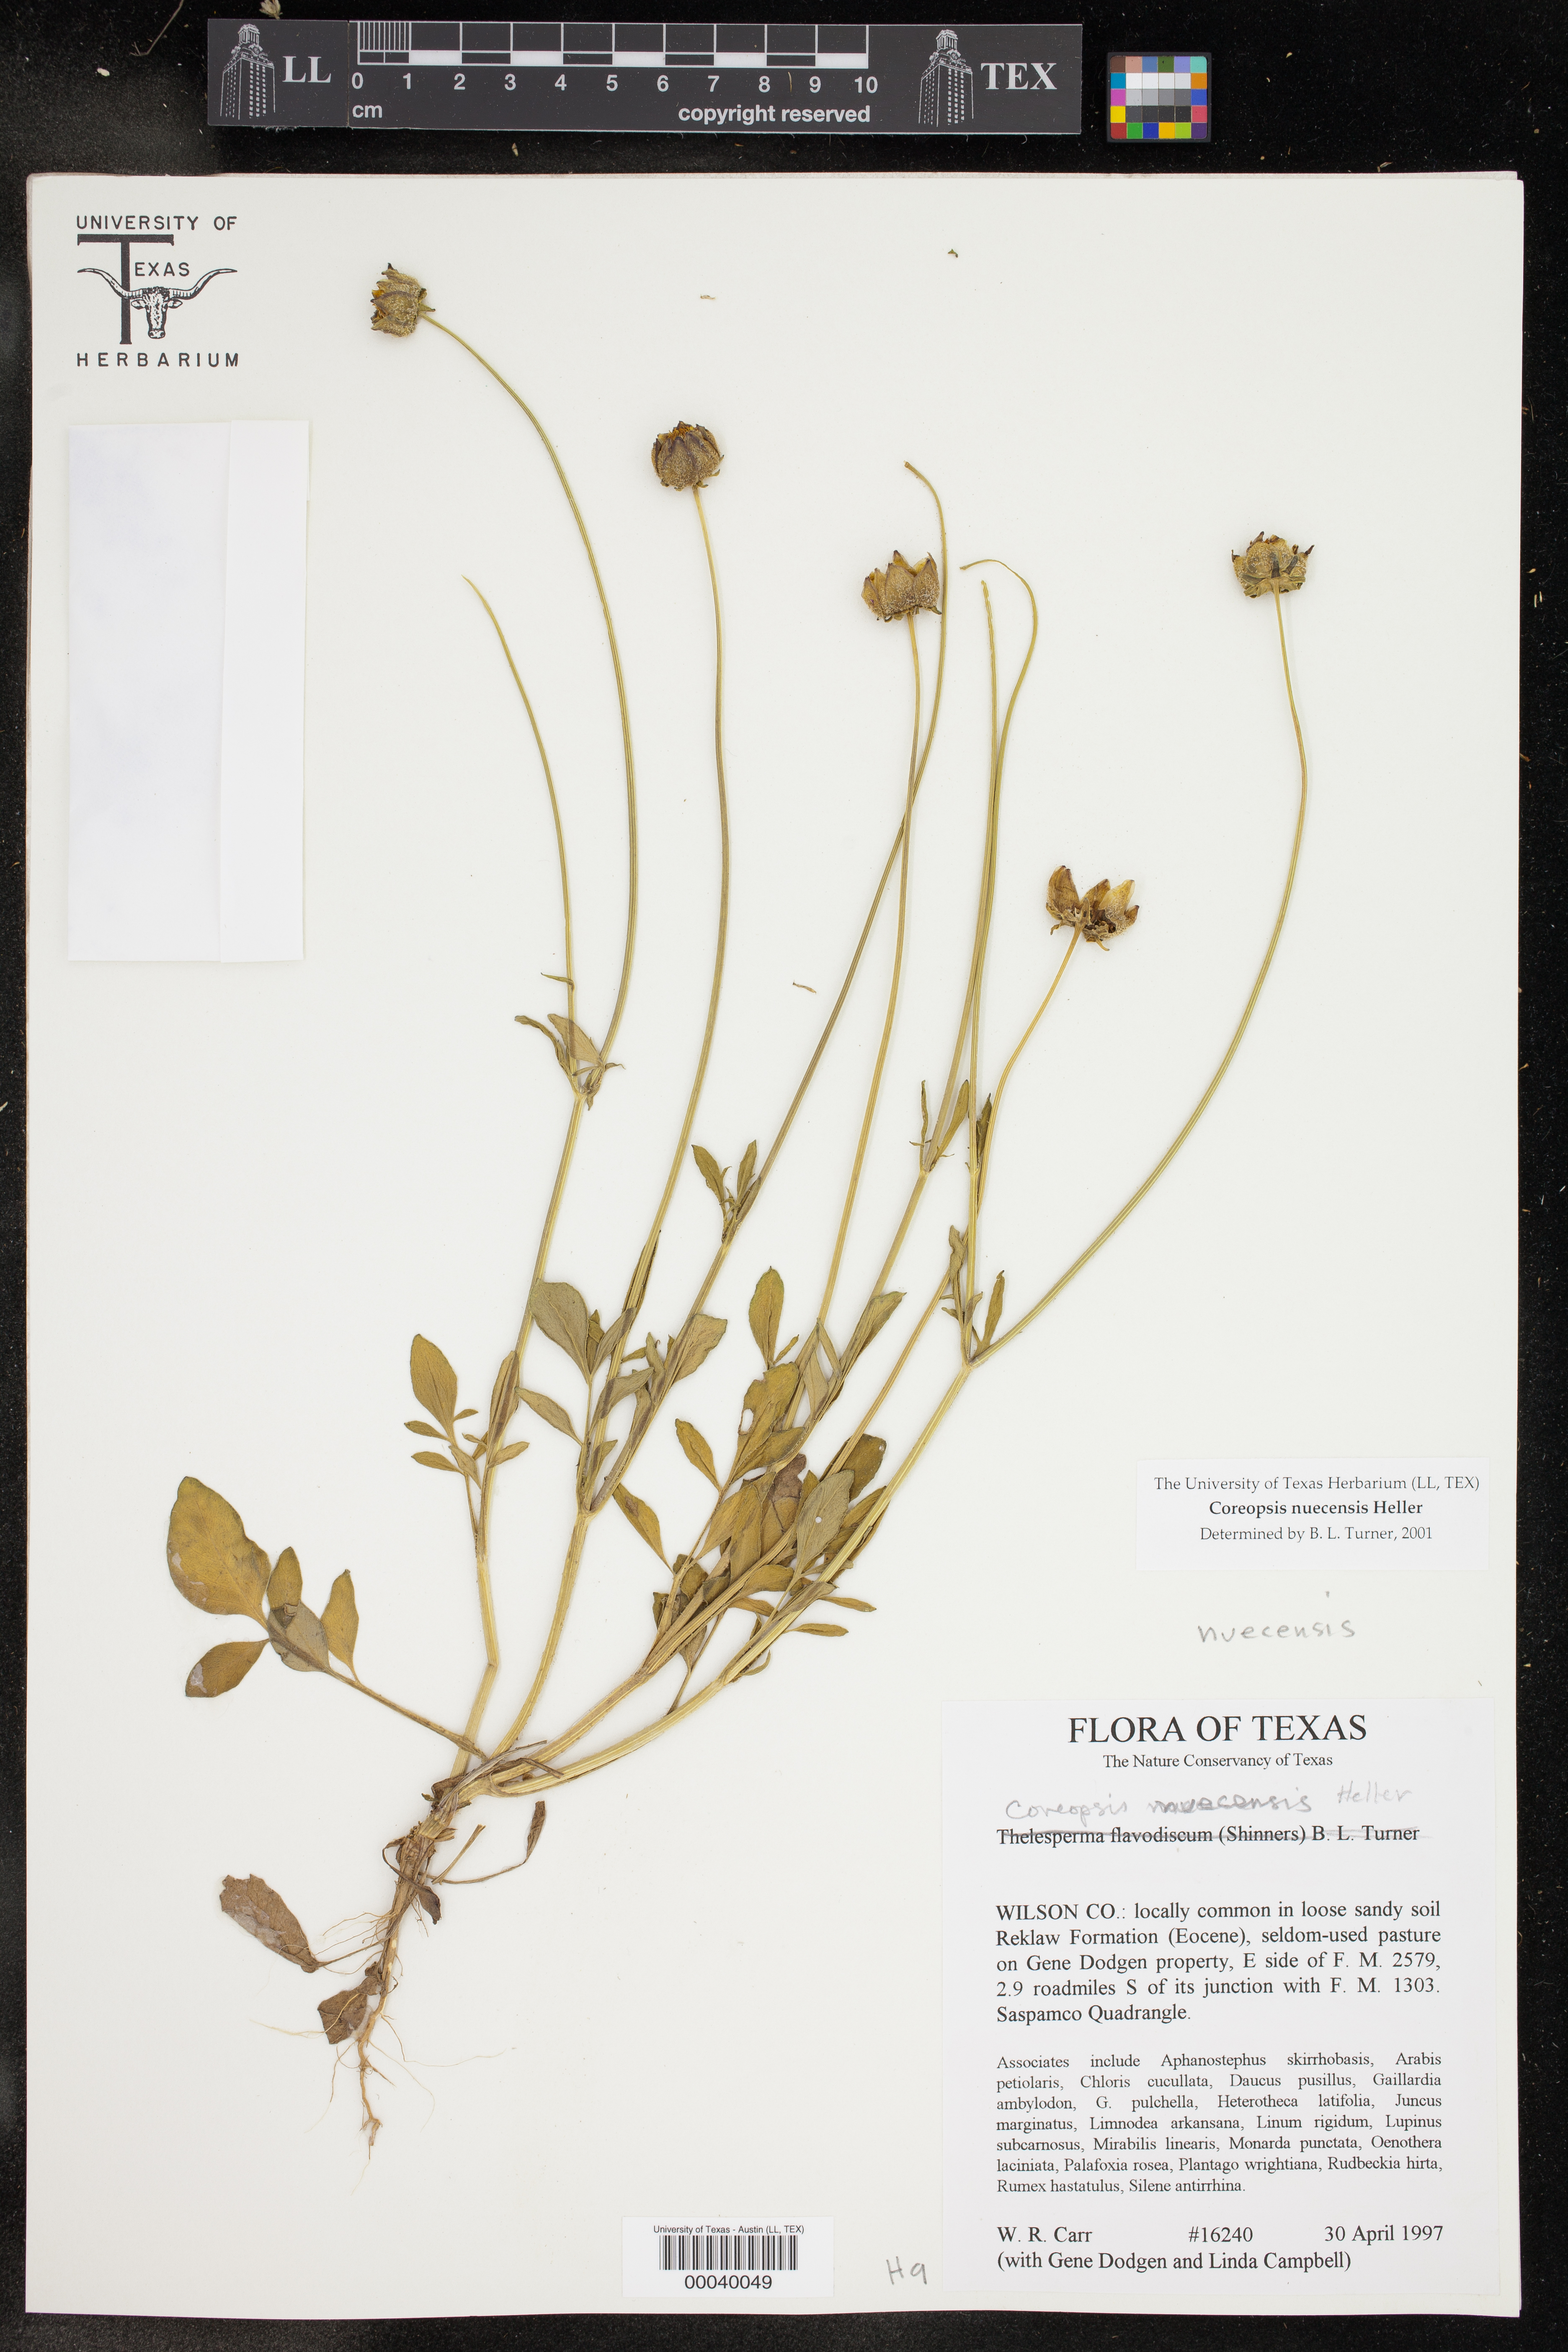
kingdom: Plantae
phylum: Tracheophyta
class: Magnoliopsida
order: Asterales
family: Asteraceae
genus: Coreopsis
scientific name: Coreopsis nuecensis
